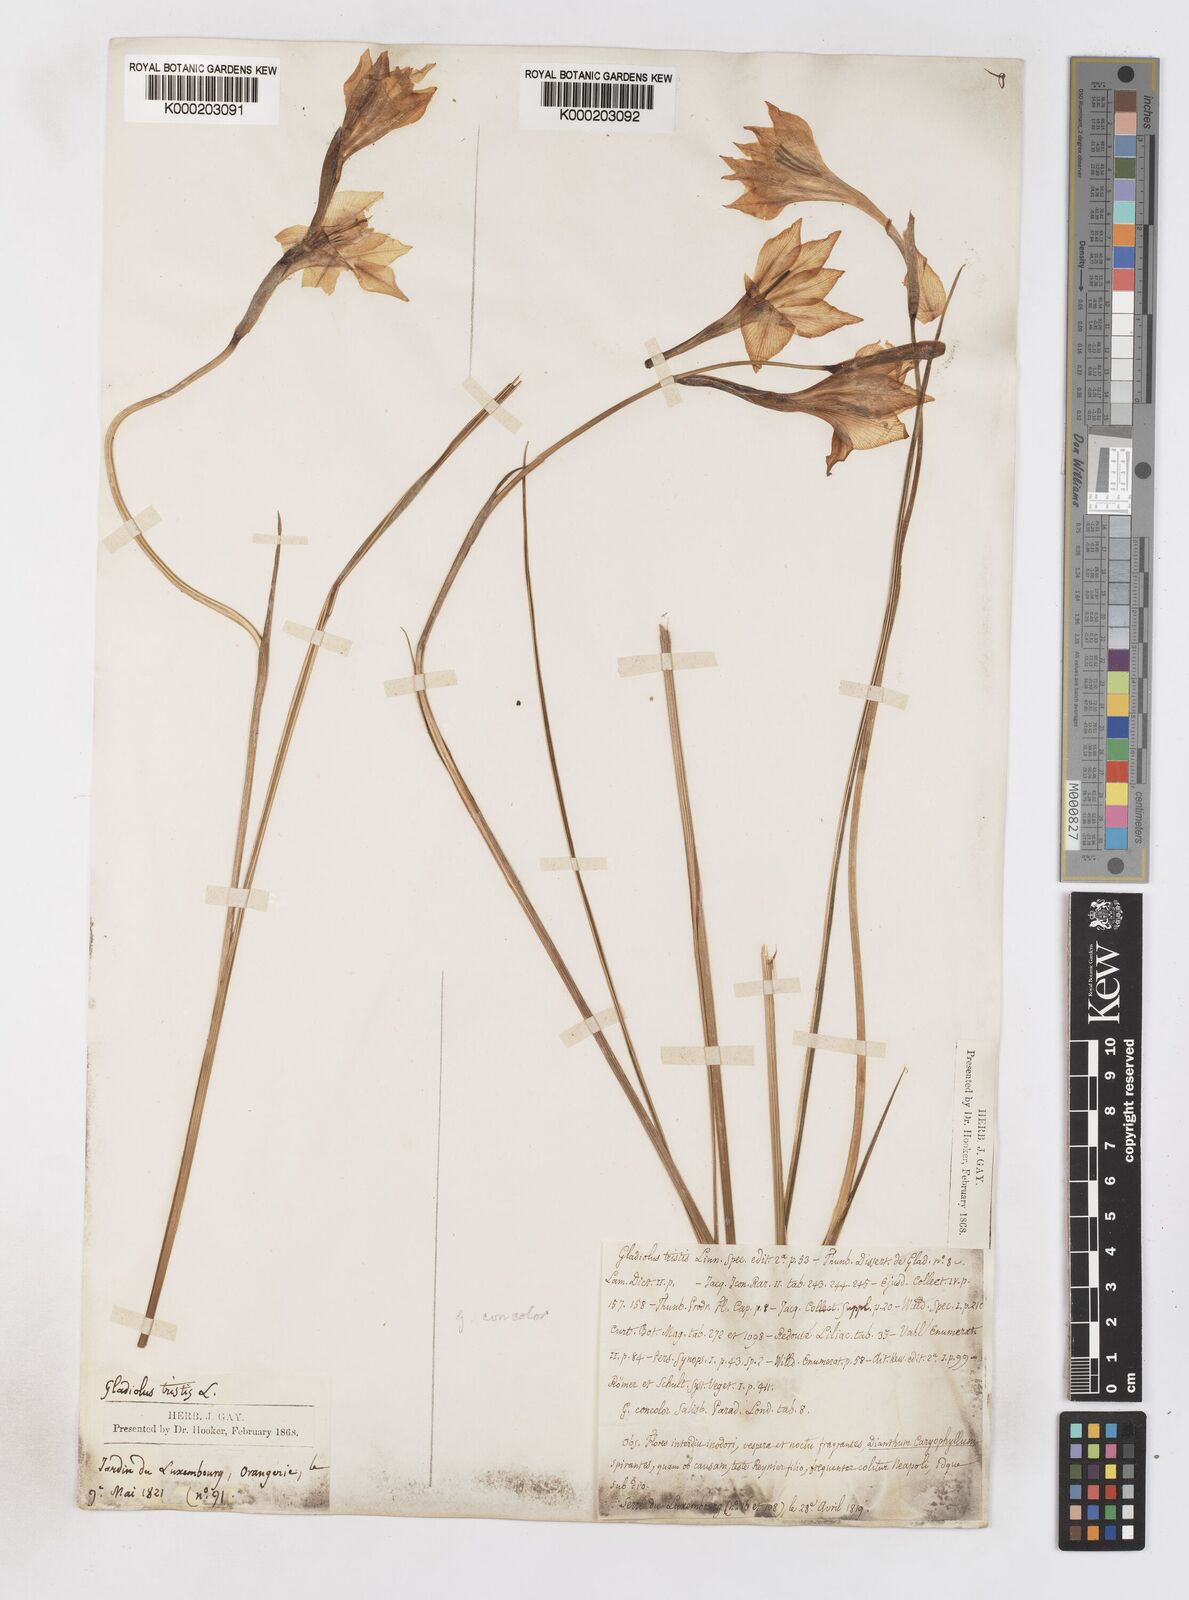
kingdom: Plantae
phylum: Tracheophyta
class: Liliopsida
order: Asparagales
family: Iridaceae
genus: Gladiolus
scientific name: Gladiolus tristis
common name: Ever-flowering gladiolus
